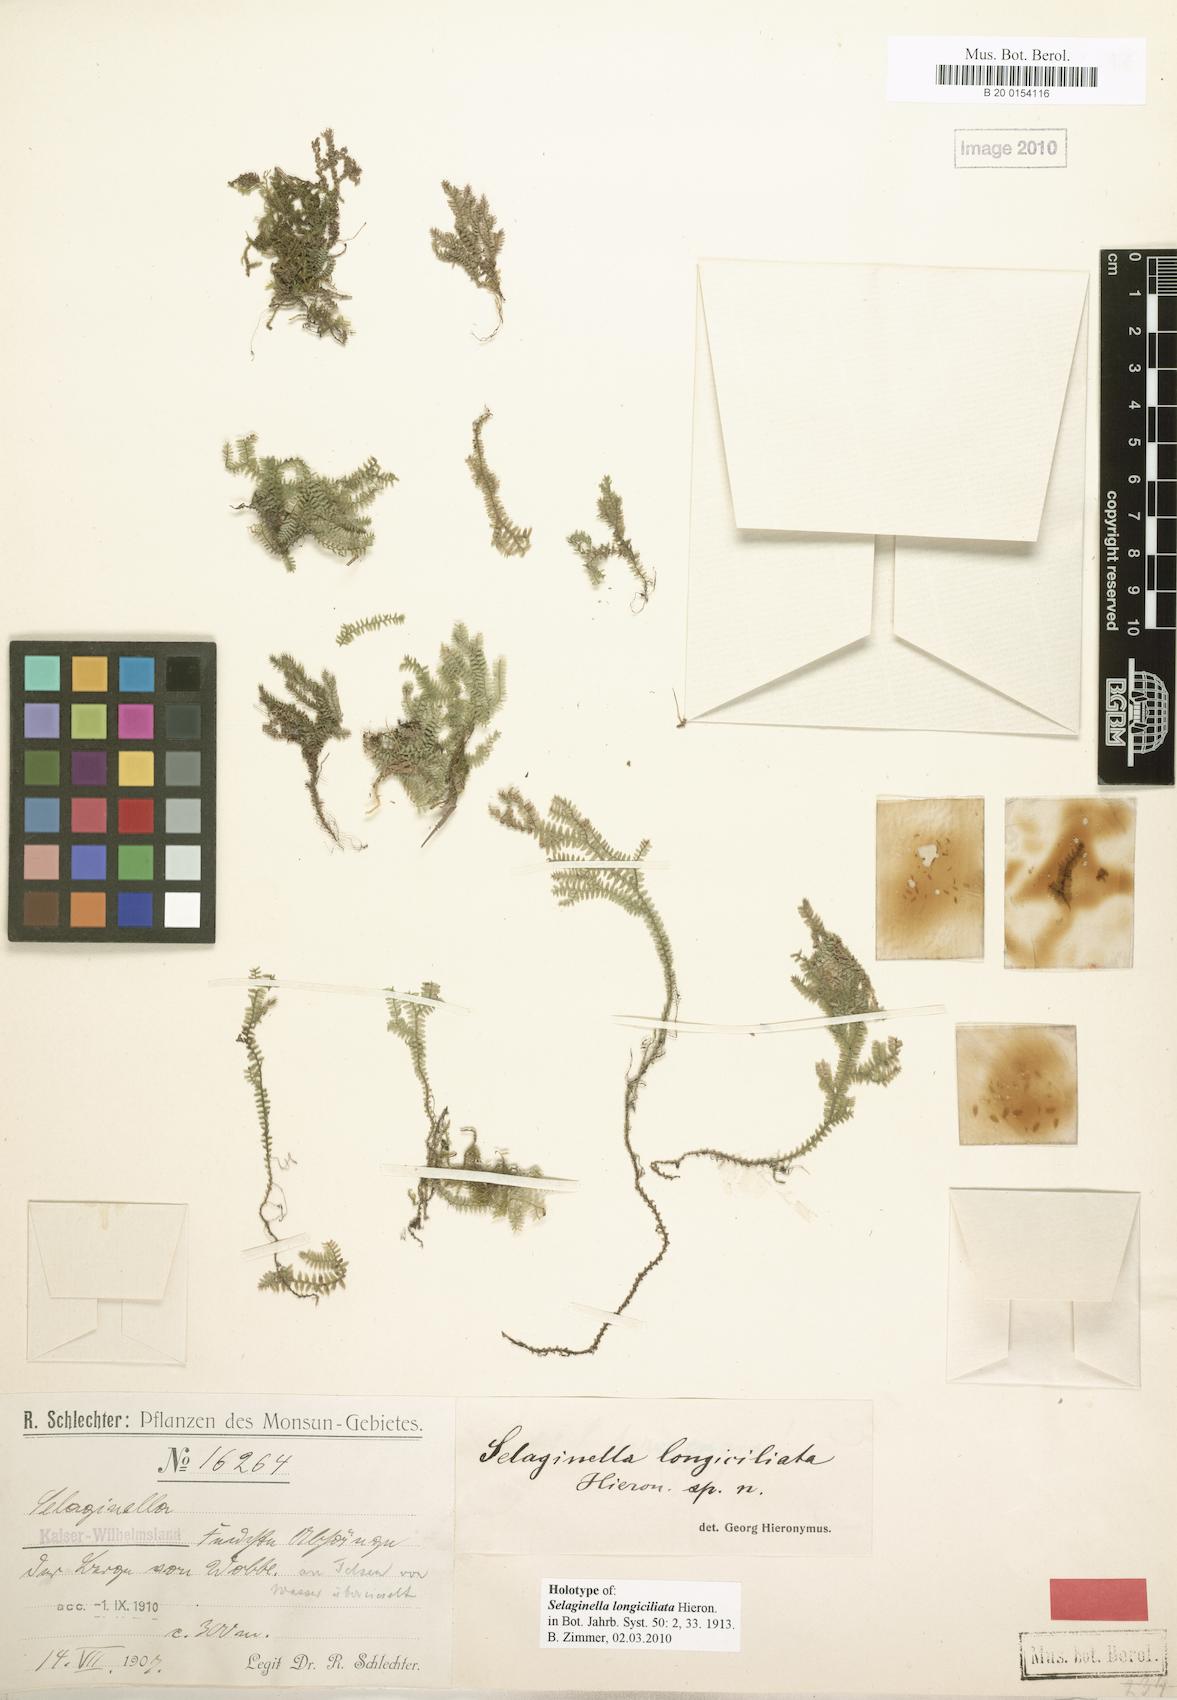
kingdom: Plantae
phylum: Tracheophyta
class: Lycopodiopsida
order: Selaginellales
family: Selaginellaceae
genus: Selaginella
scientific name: Selaginella longiciliata
